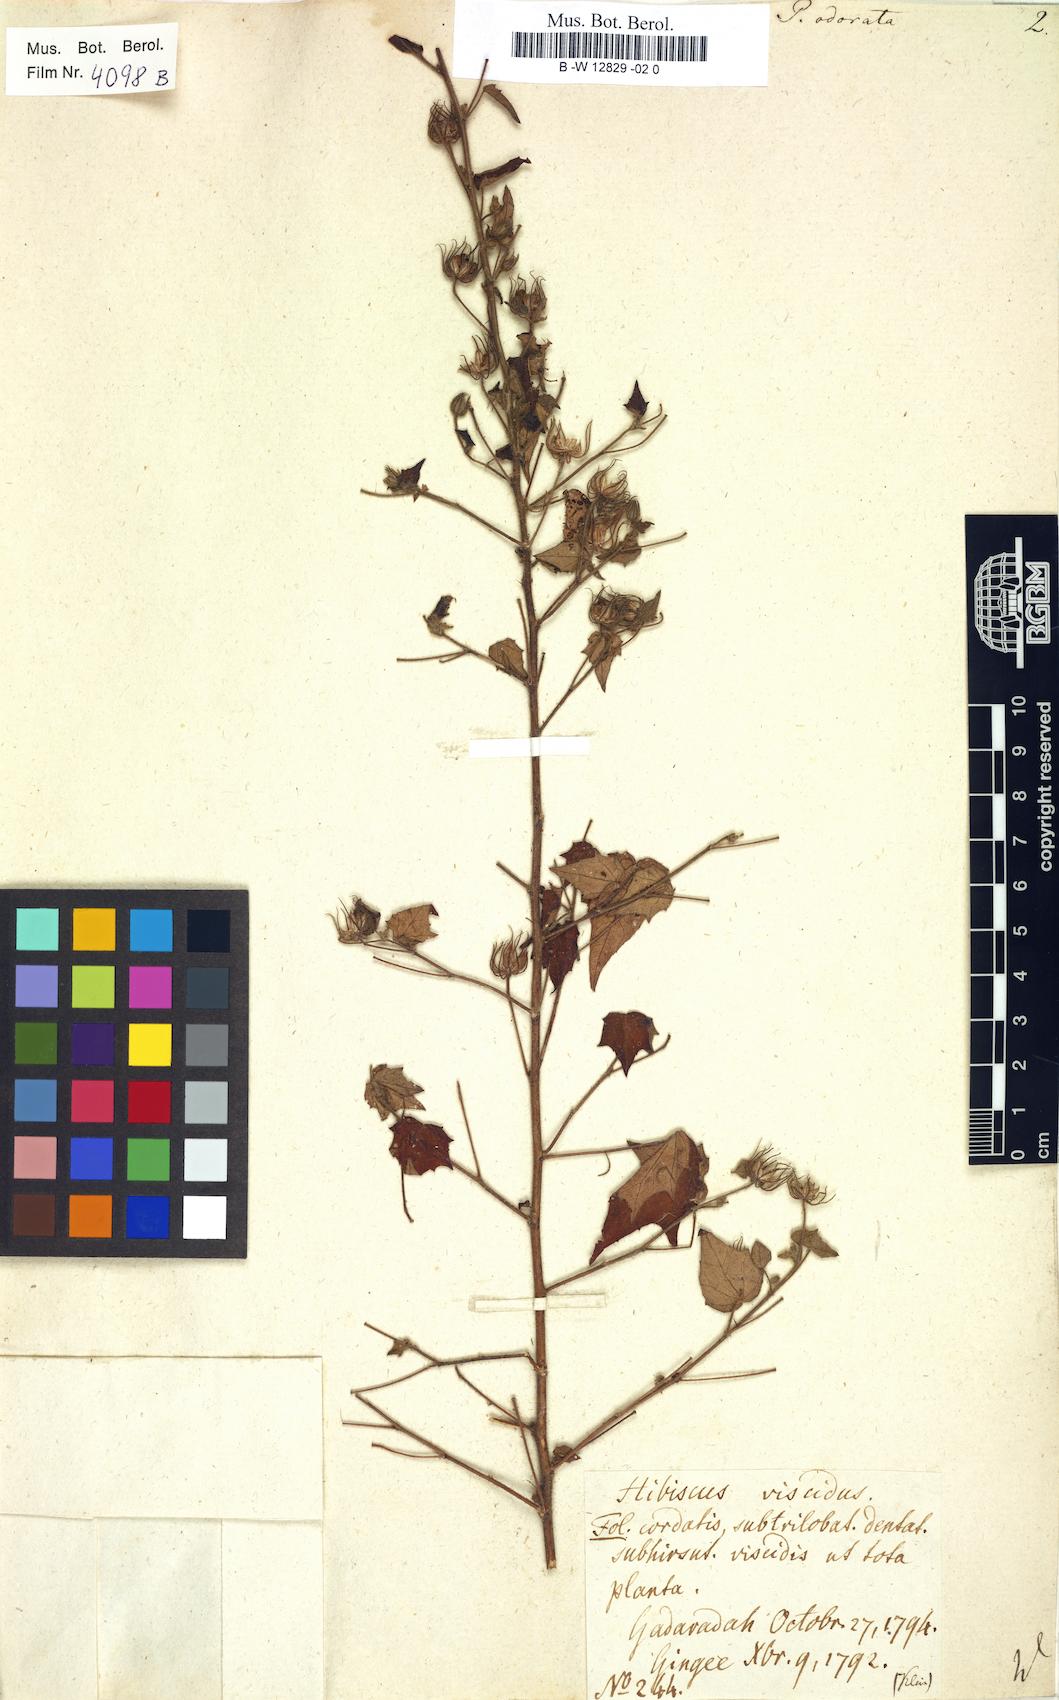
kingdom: Plantae
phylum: Tracheophyta
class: Magnoliopsida
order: Malvales
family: Malvaceae
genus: Pavonia
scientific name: Pavonia zeylonica
